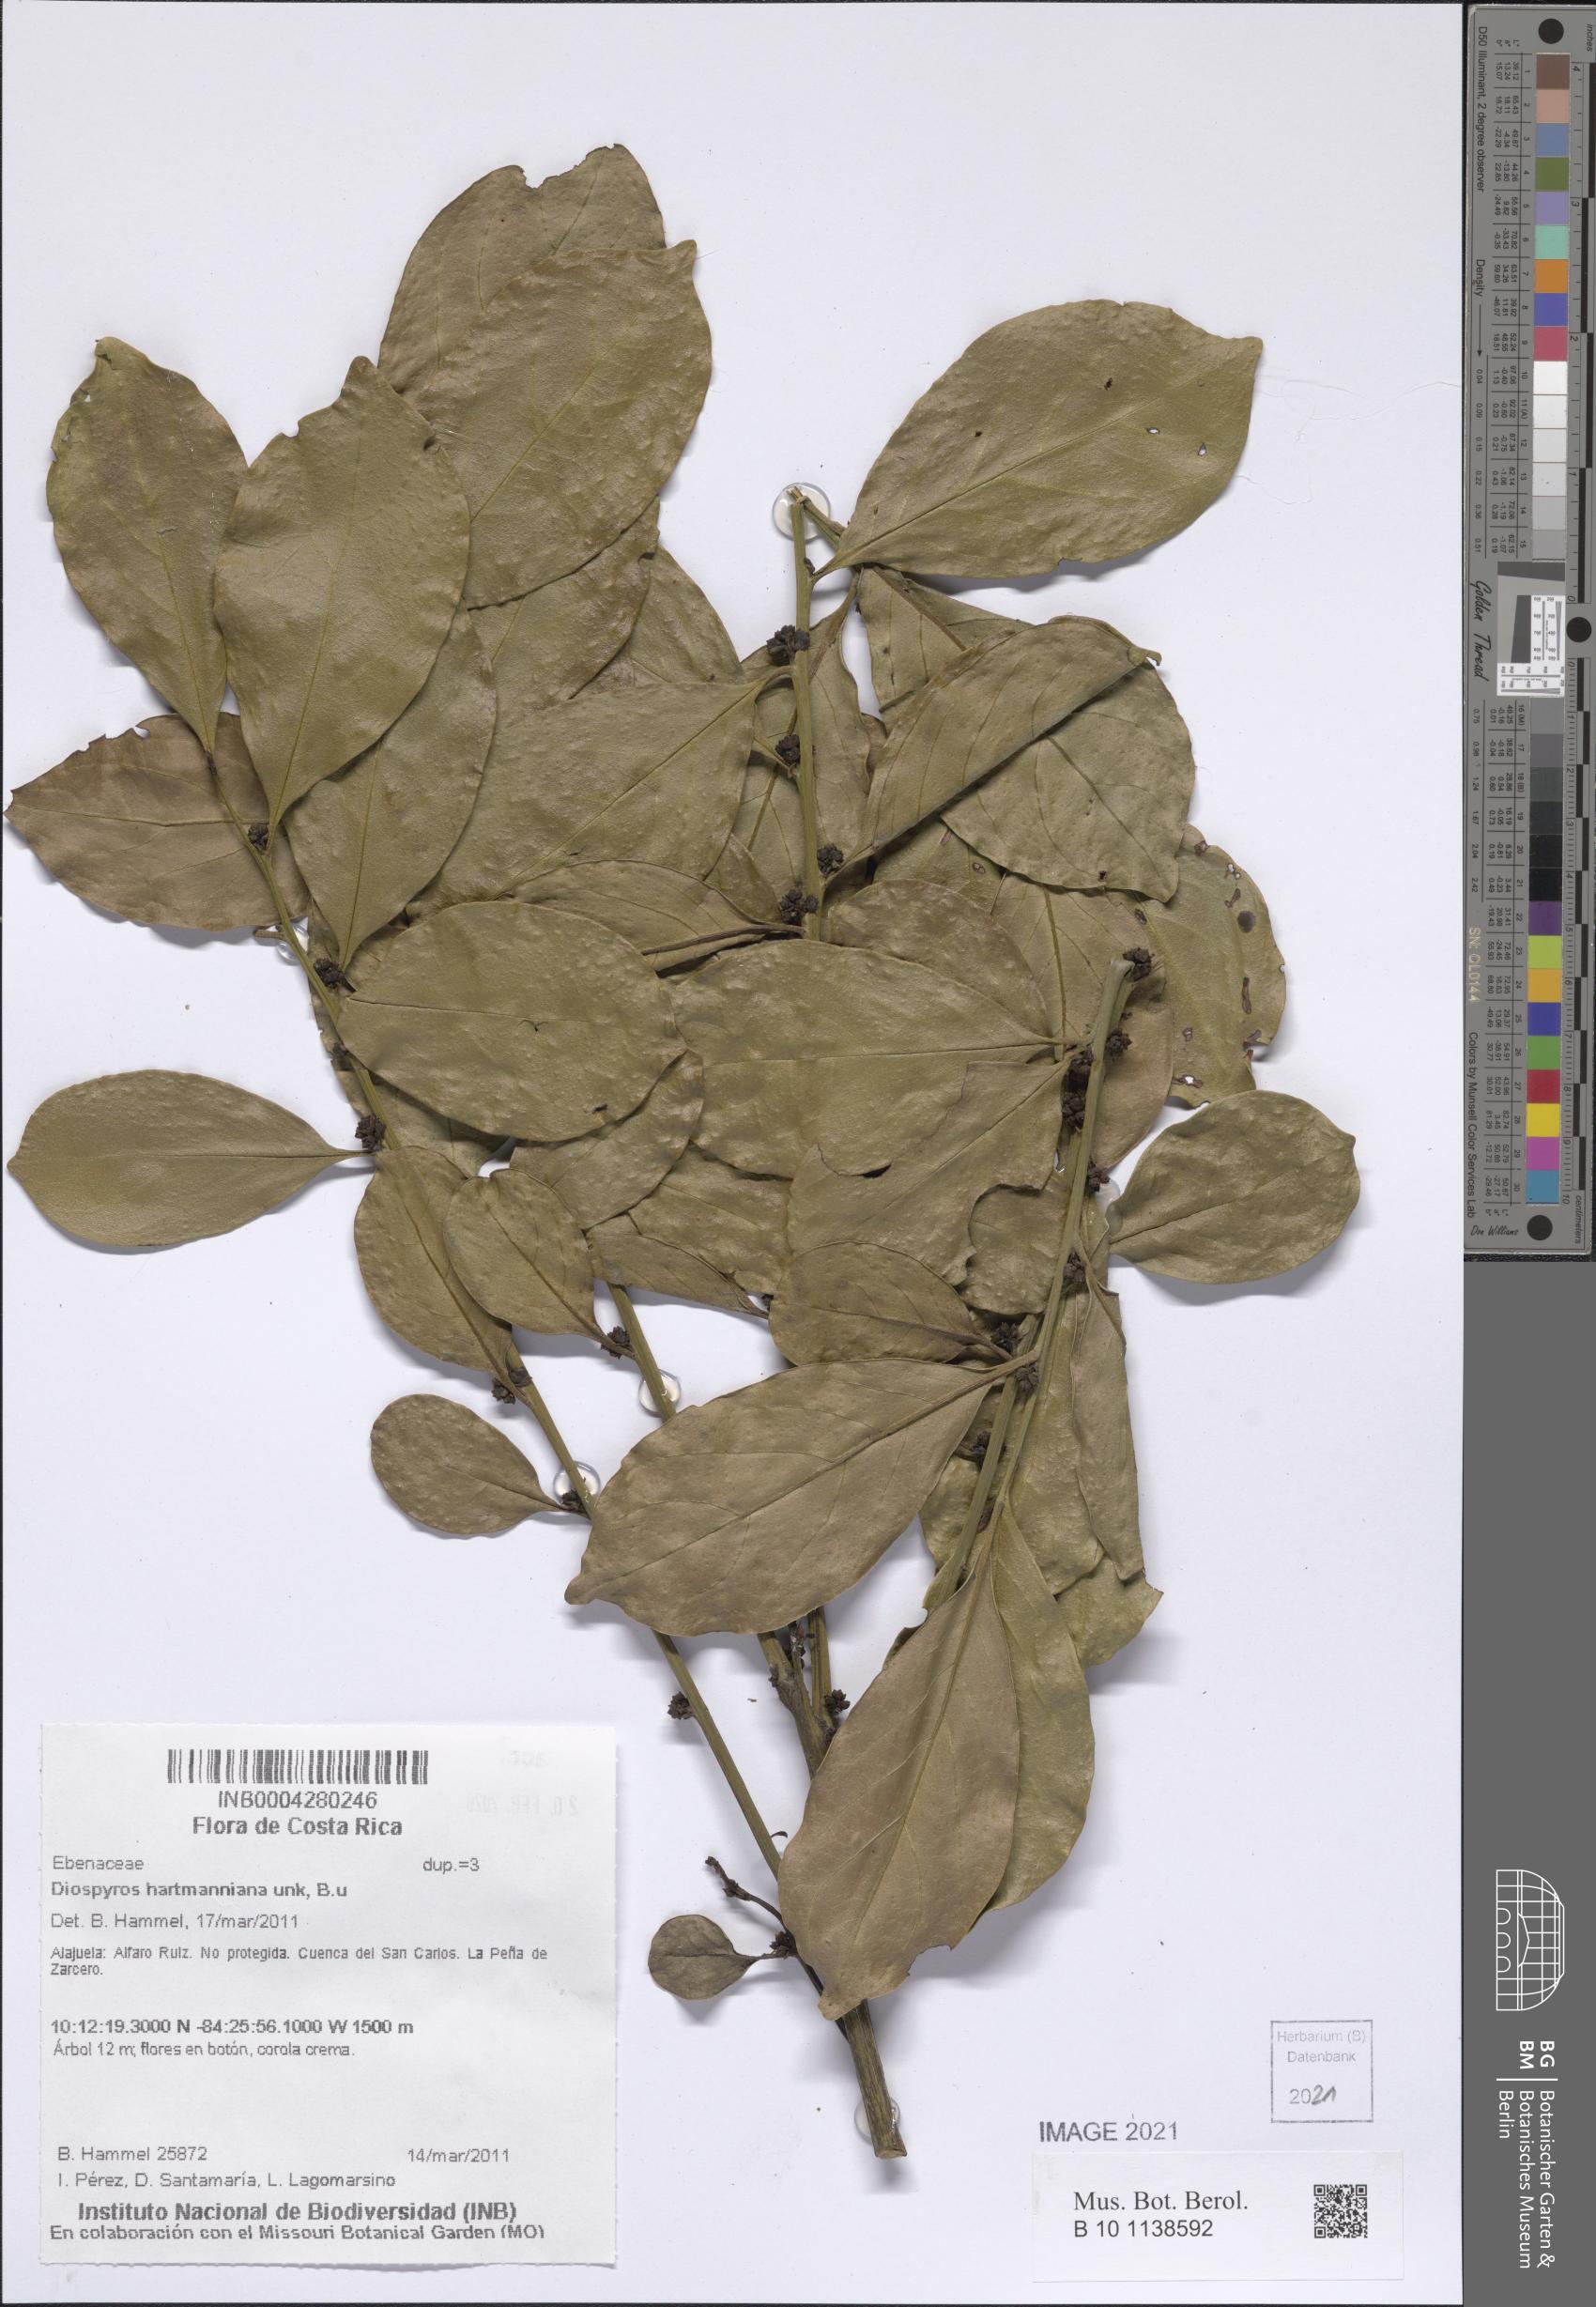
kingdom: Plantae
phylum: Tracheophyta
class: Magnoliopsida
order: Ericales
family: Ebenaceae
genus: Diospyros
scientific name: Diospyros juruensis
